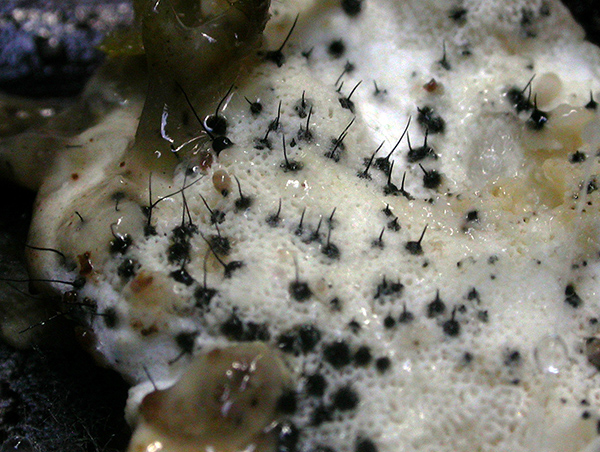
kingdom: Fungi
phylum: Ascomycota
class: Sordariomycetes
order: Ophiostomatales
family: Ophiostomataceae
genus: Sporothrix
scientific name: Sporothrix polyporicola
